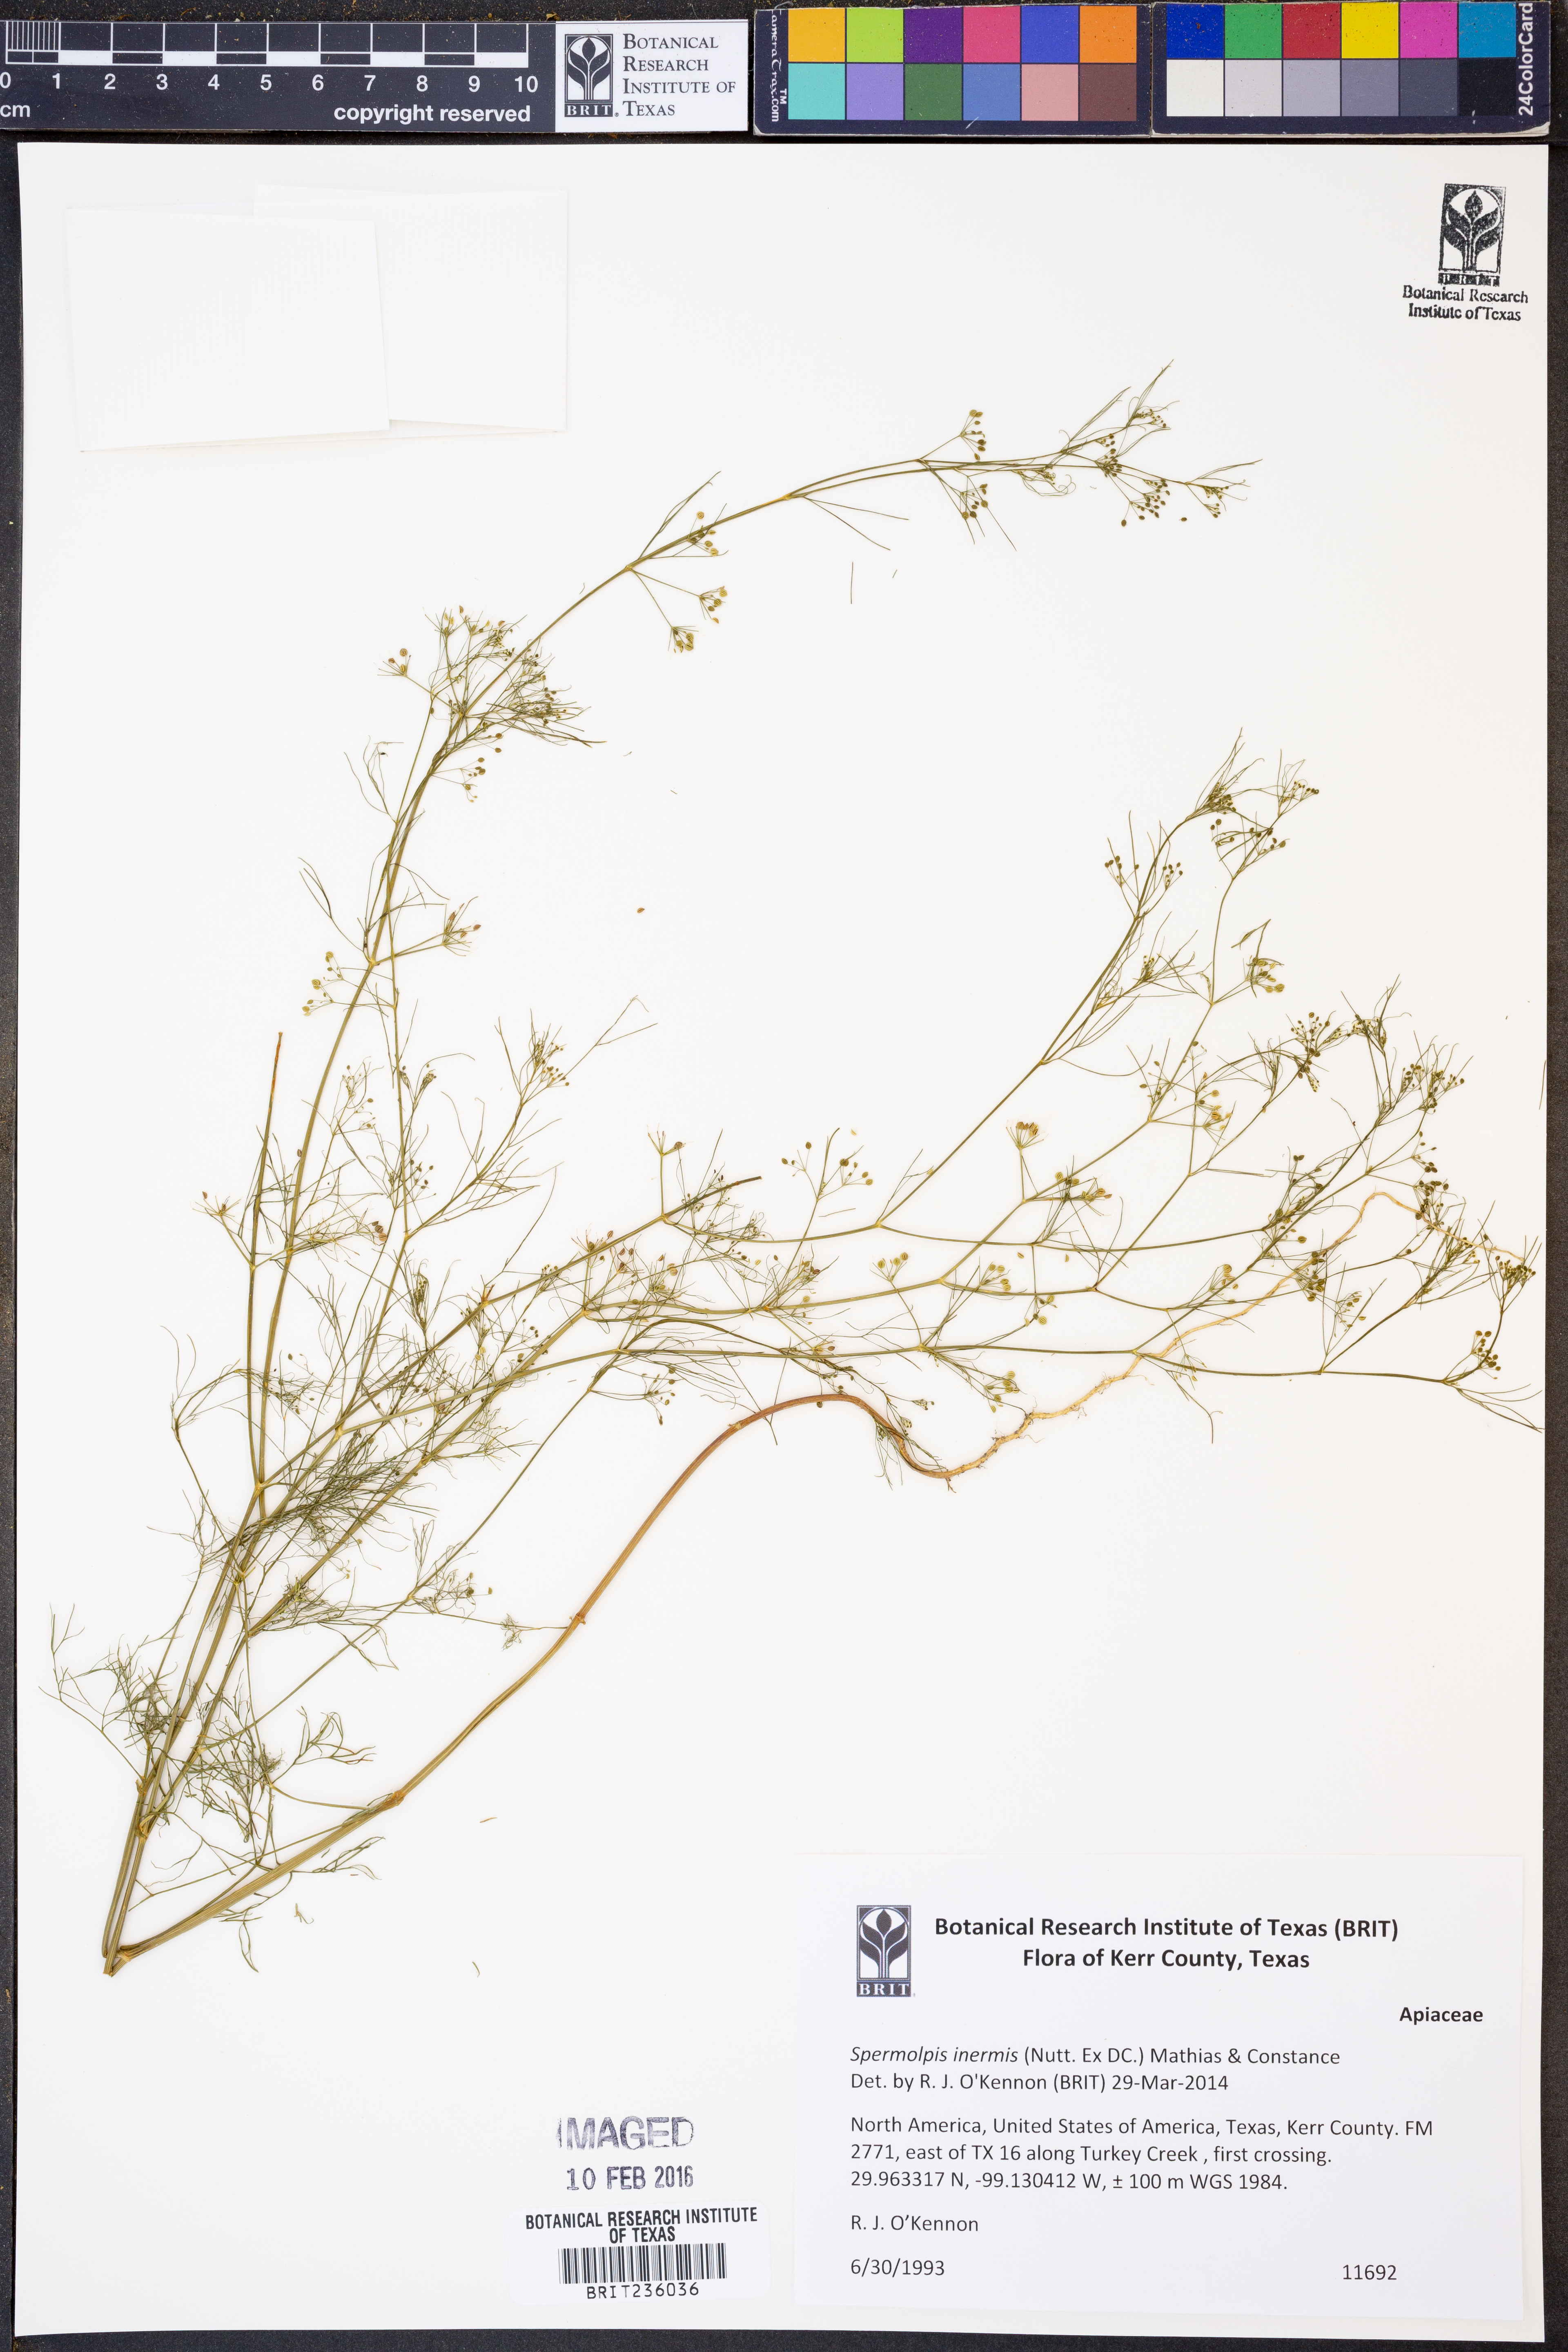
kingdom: Plantae
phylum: Tracheophyta
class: Magnoliopsida
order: Apiales
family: Apiaceae
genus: Spermolepis
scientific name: Spermolepis inermis
